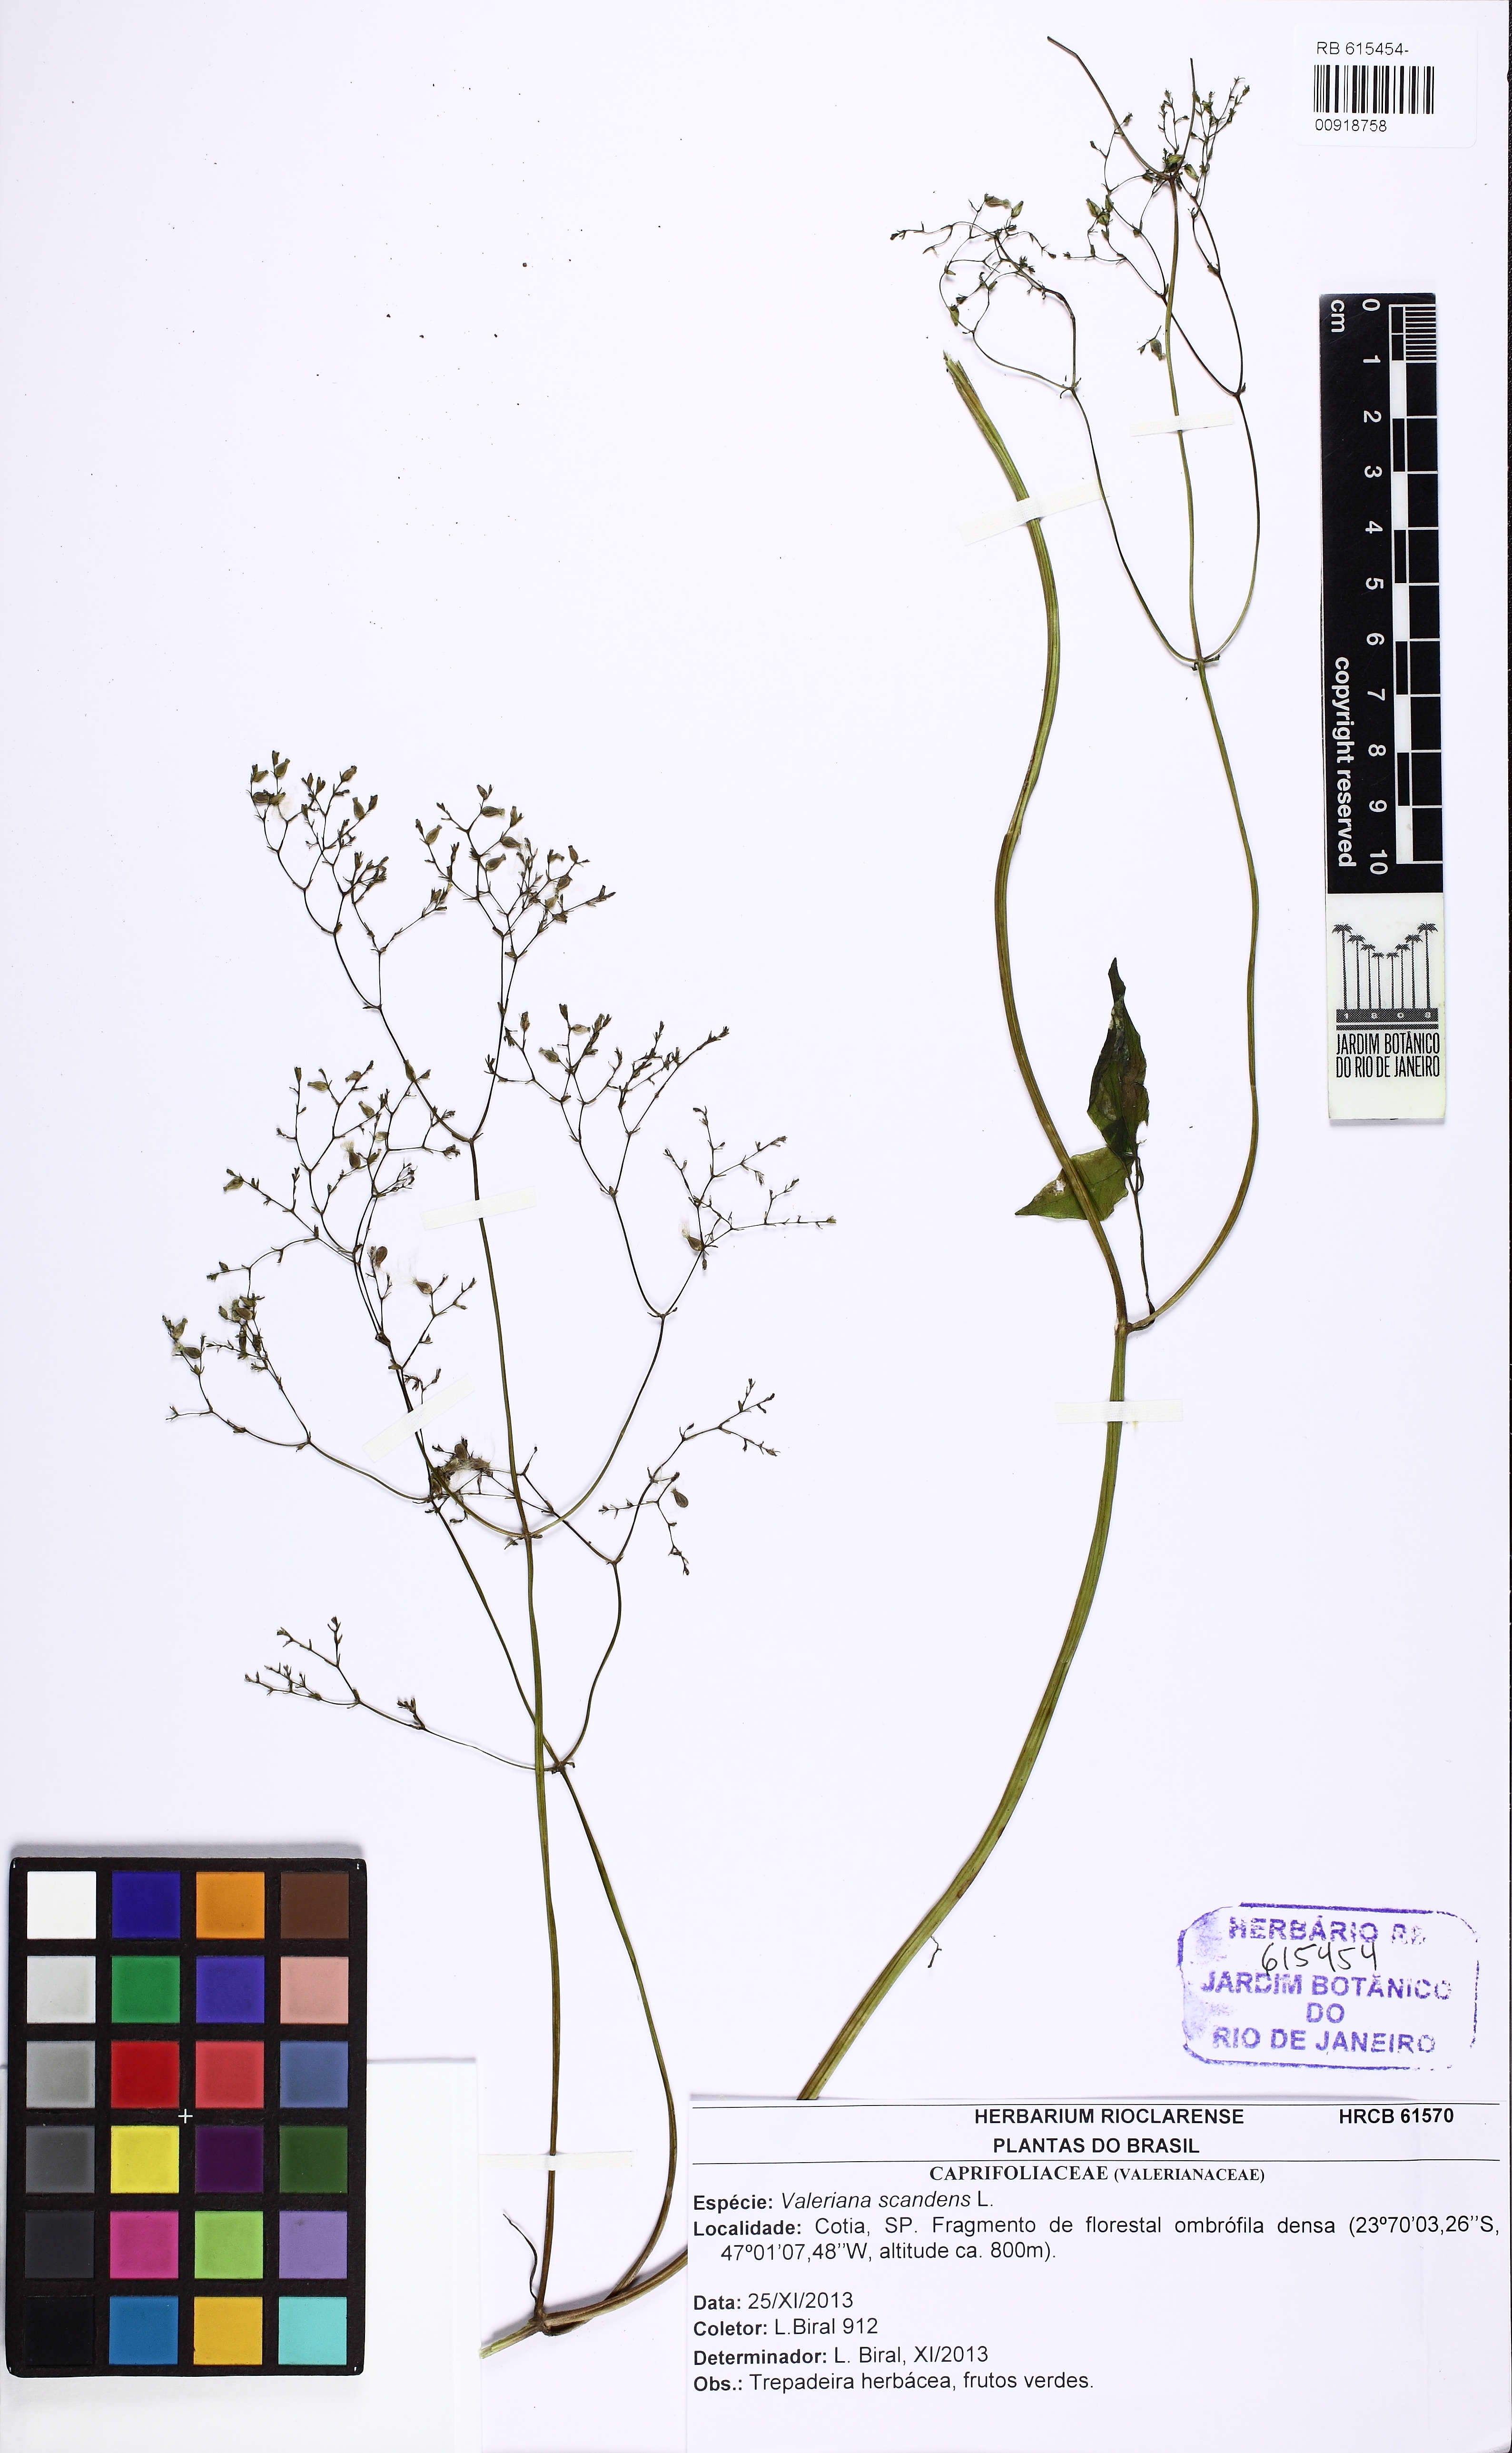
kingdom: Plantae
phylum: Tracheophyta
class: Magnoliopsida
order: Dipsacales
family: Caprifoliaceae
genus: Valeriana
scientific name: Valeriana scandens
